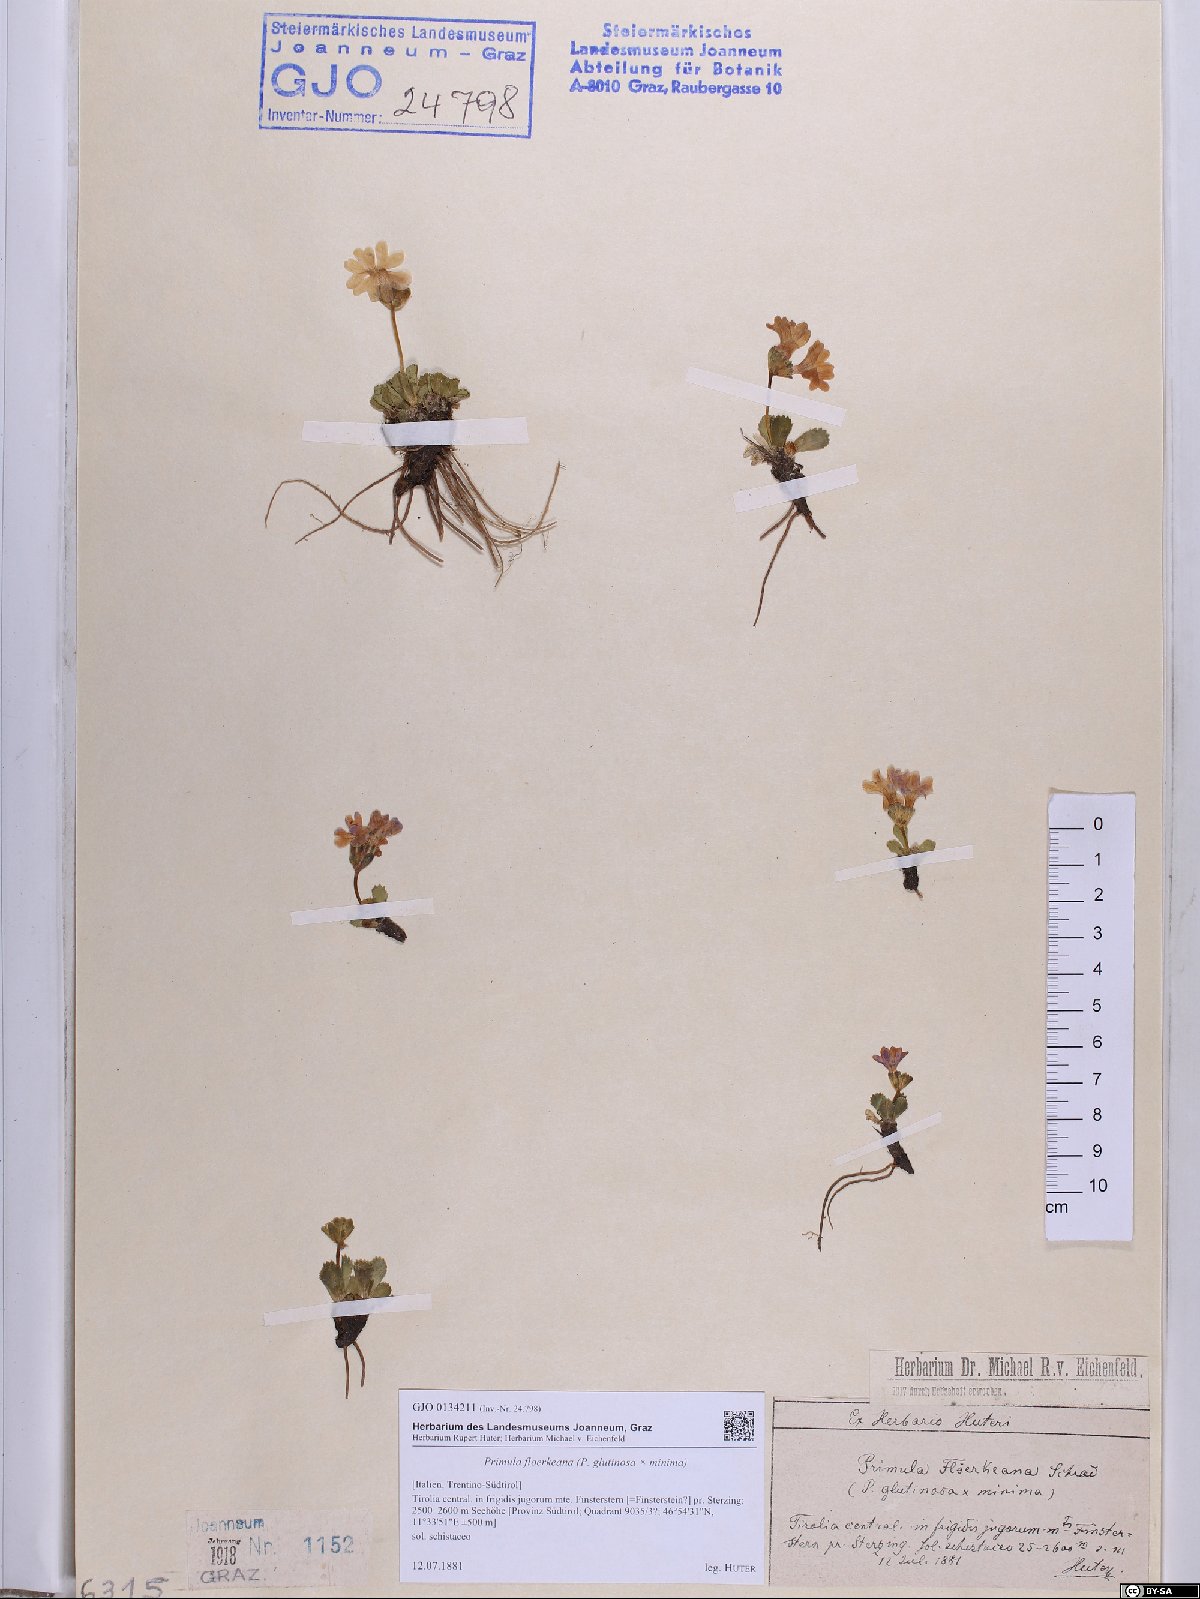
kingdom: Plantae
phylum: Tracheophyta
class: Magnoliopsida
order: Ericales
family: Primulaceae
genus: Primula
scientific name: Primula floerkeana
